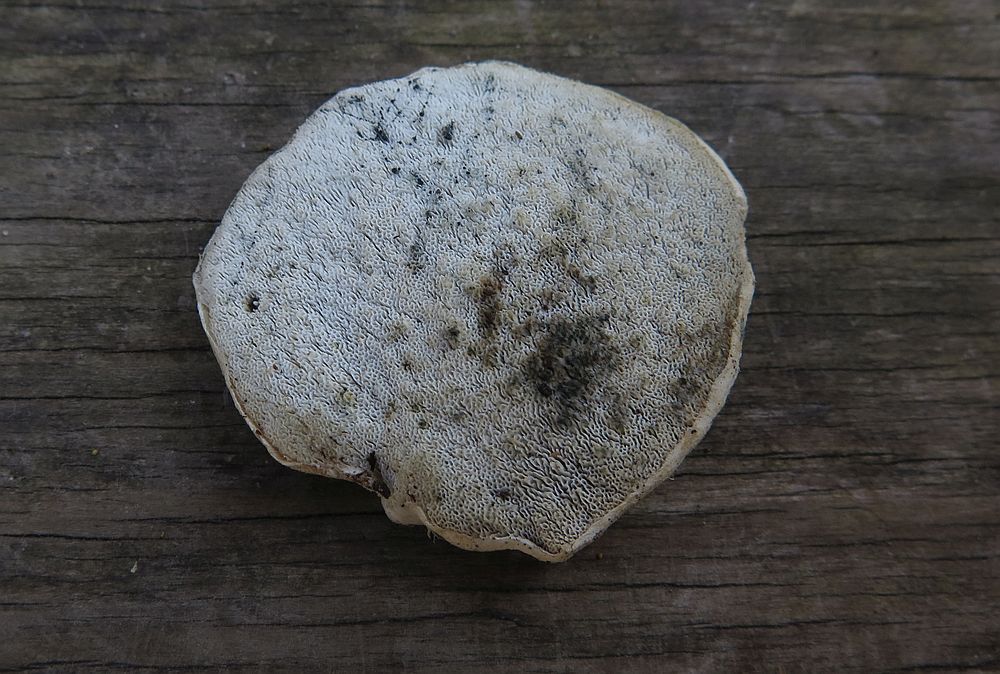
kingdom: Fungi
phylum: Basidiomycota
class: Agaricomycetes
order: Polyporales
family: Polyporaceae
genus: Cyanosporus
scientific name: Cyanosporus alni
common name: blegblå kødporesvamp
